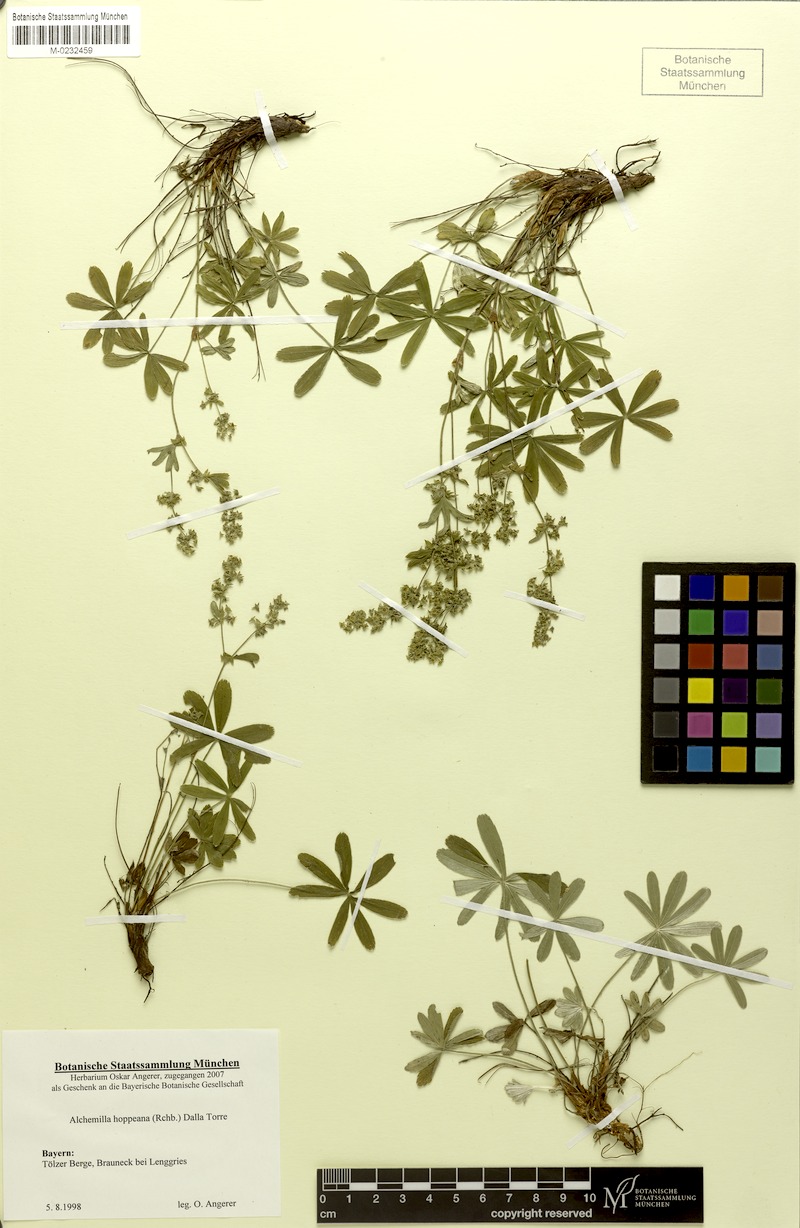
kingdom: Plantae
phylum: Tracheophyta
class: Magnoliopsida
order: Rosales
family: Rosaceae
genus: Alchemilla
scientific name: Alchemilla hoppeana
